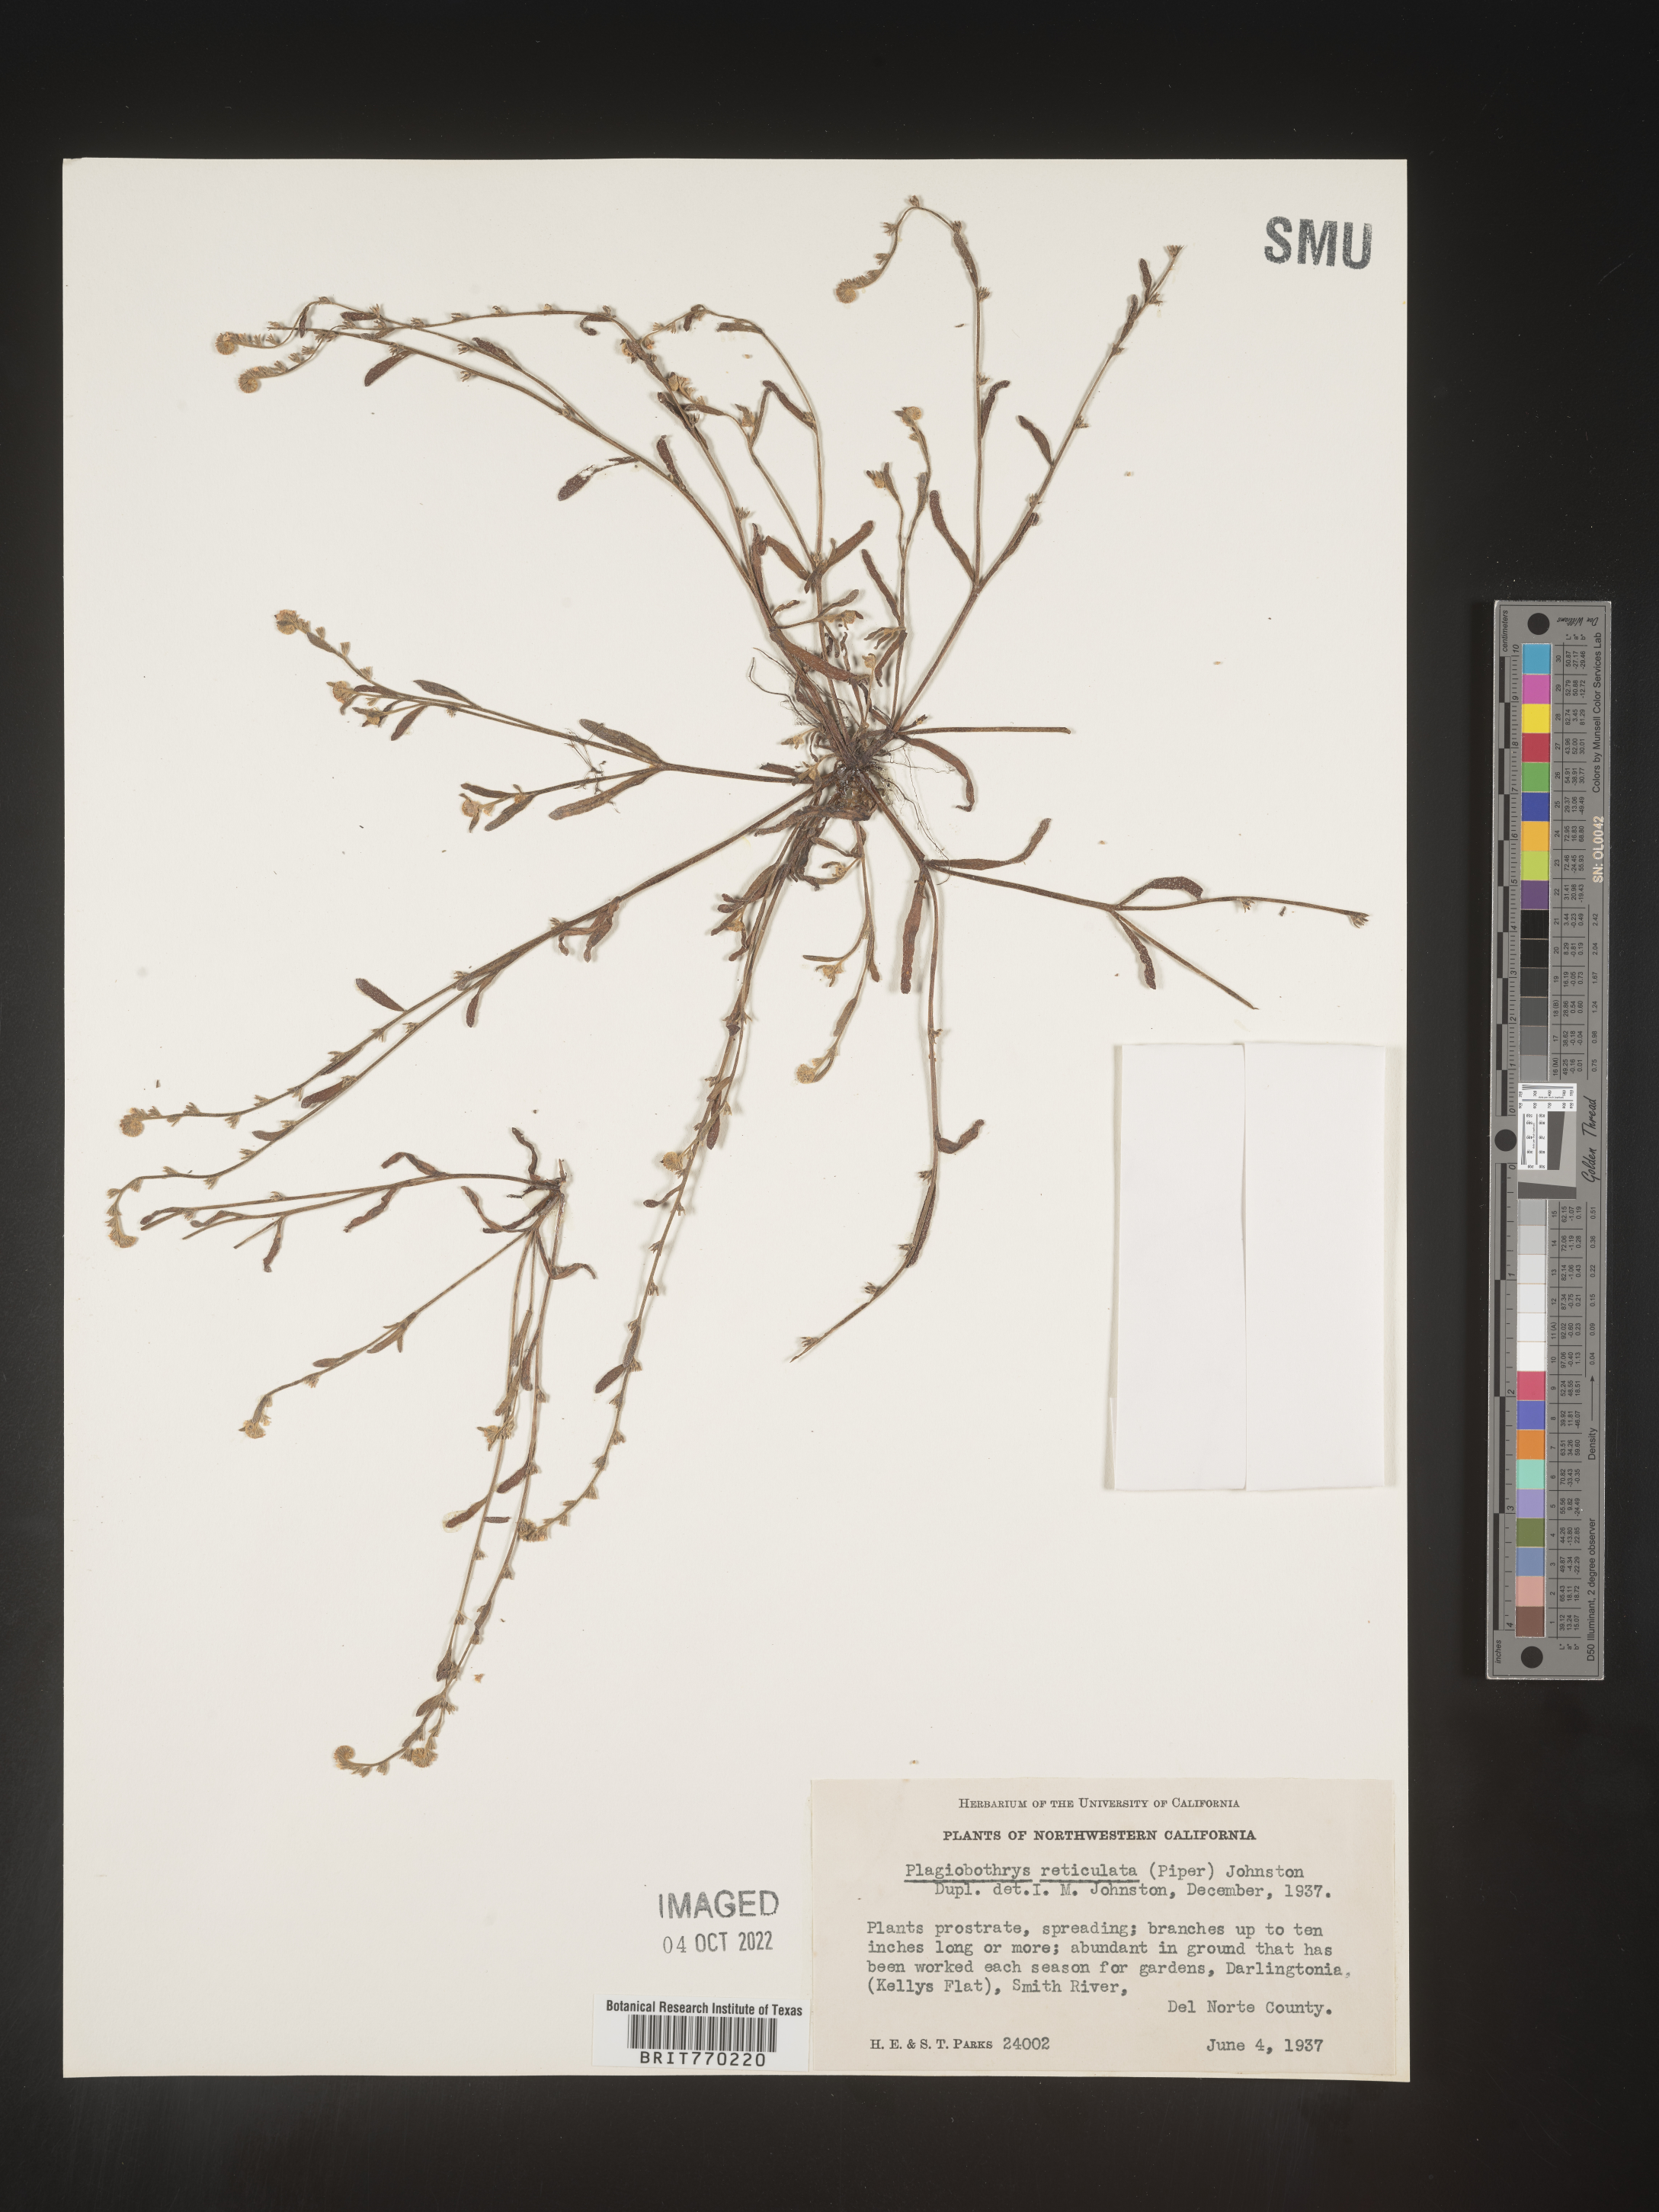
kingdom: Plantae
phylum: Tracheophyta
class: Magnoliopsida
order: Boraginales
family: Boraginaceae
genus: Plagiobothrys
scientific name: Plagiobothrys
